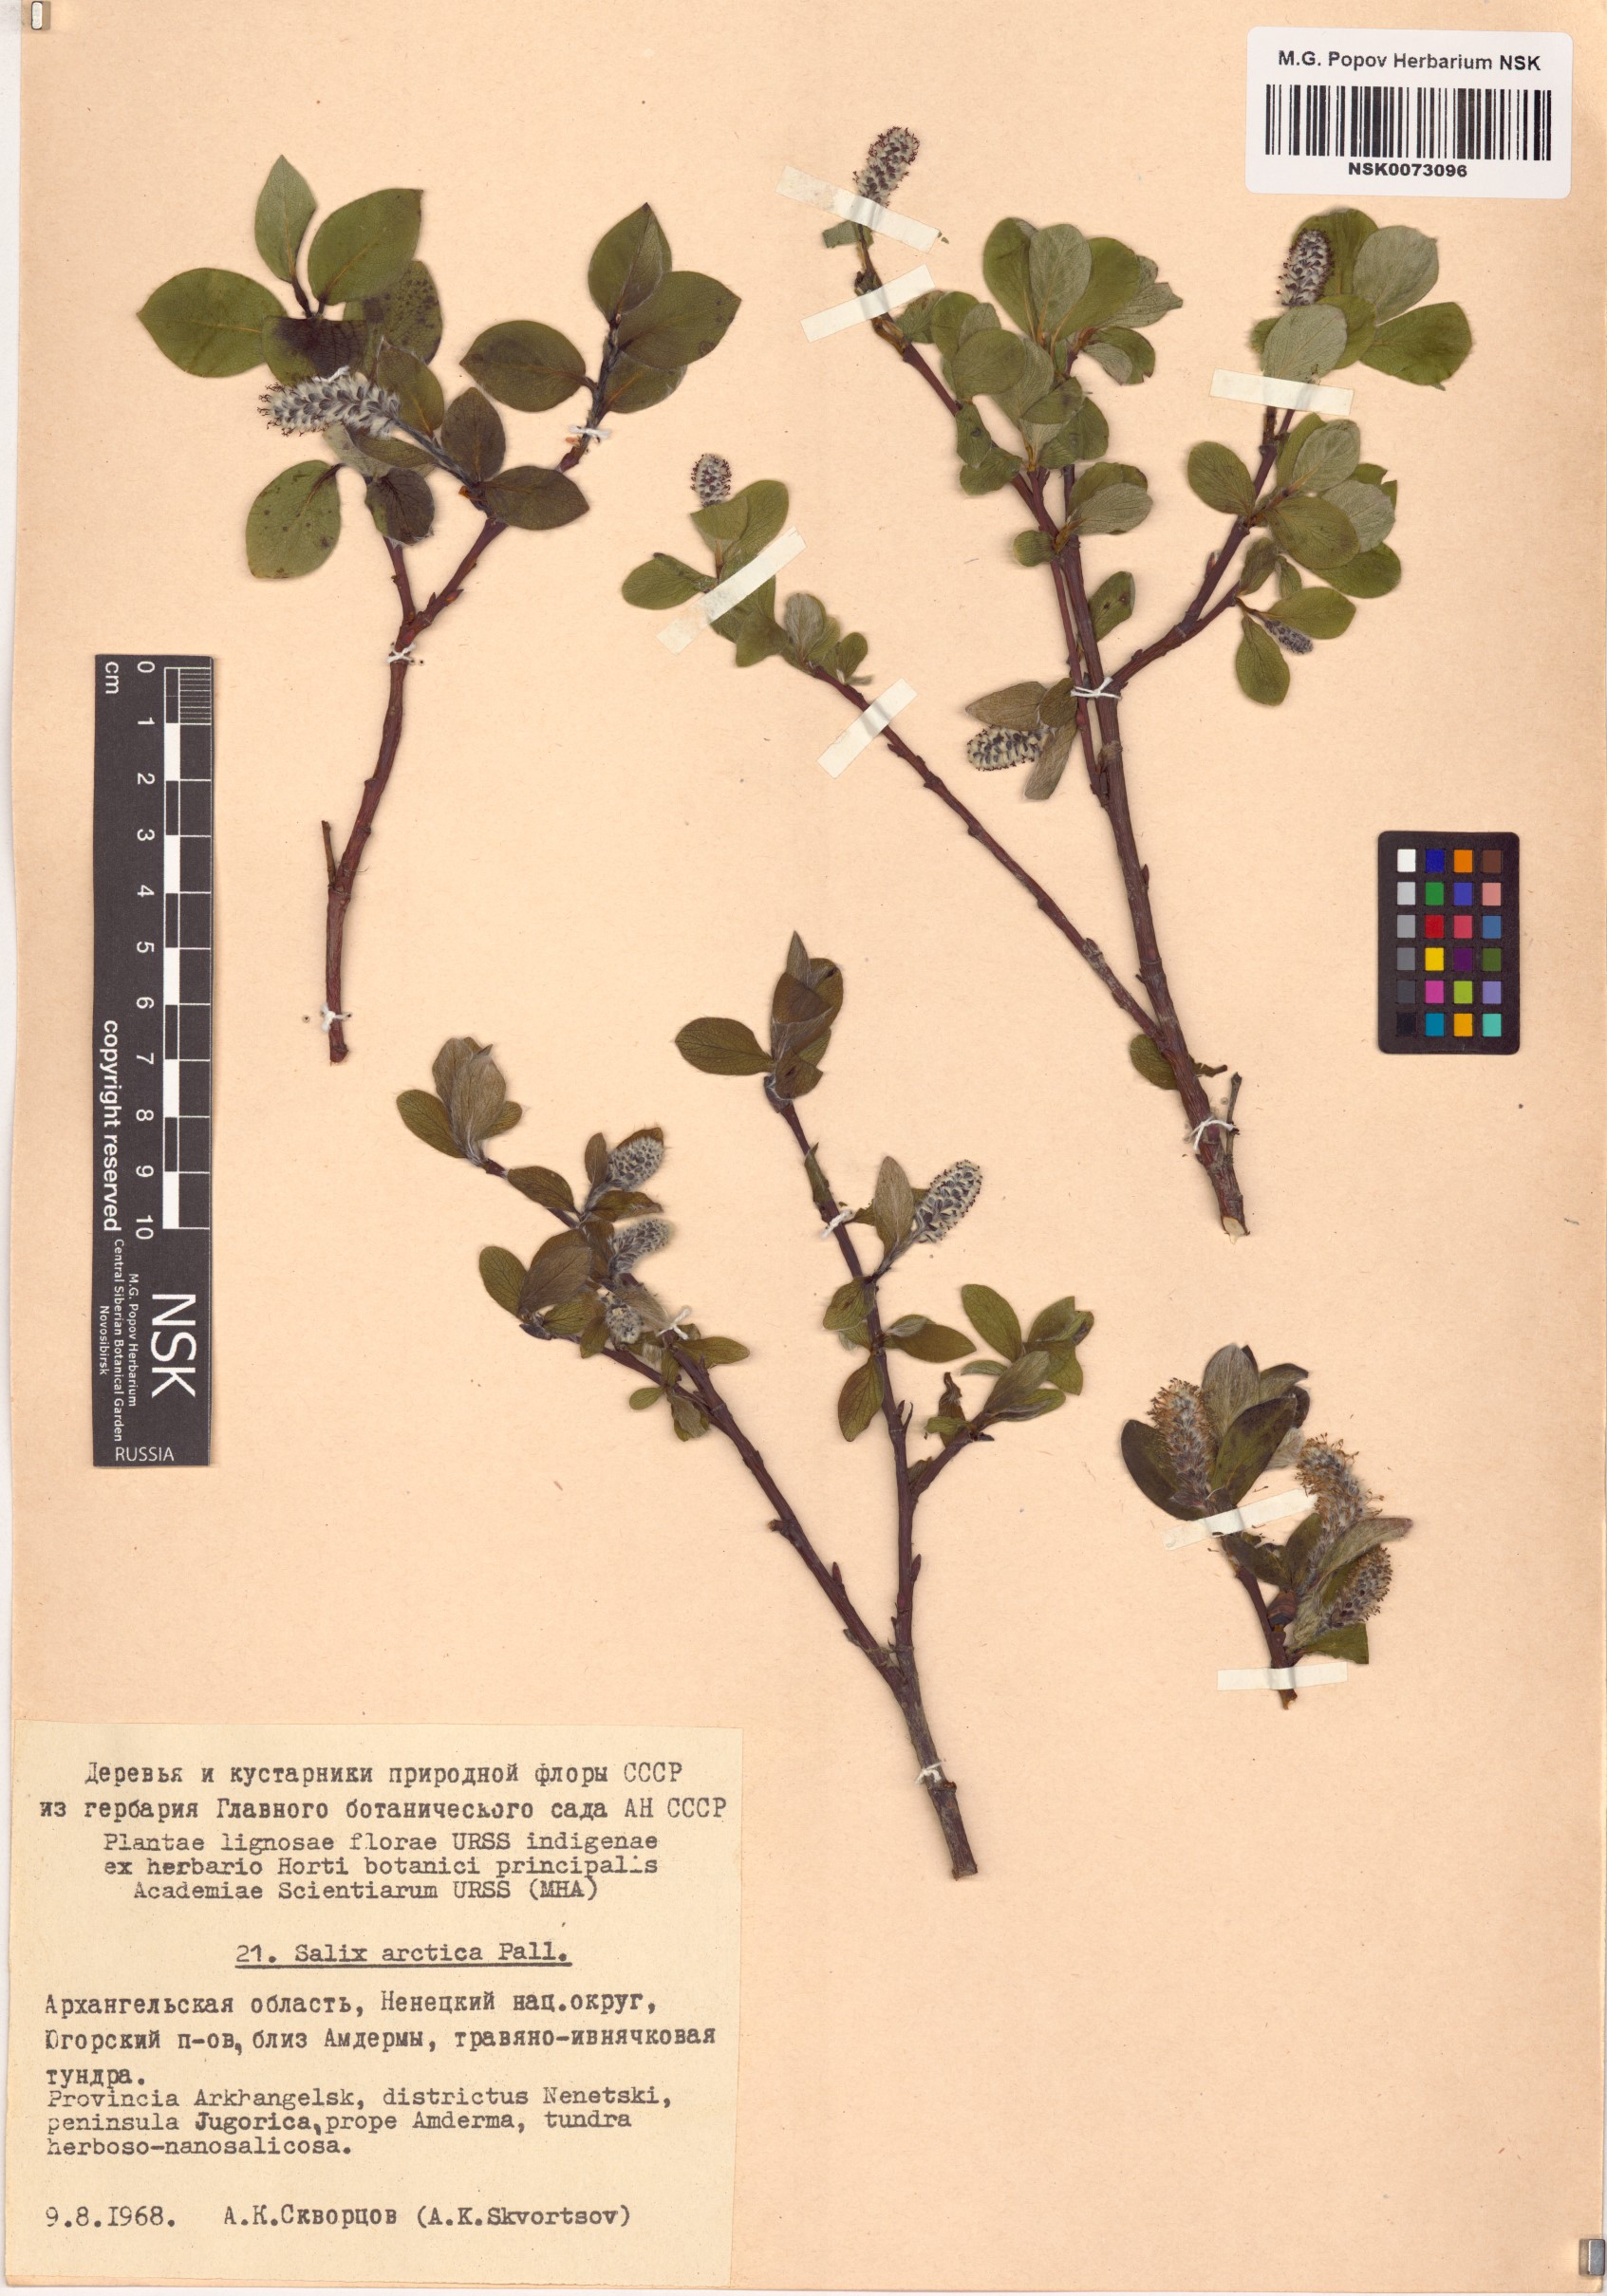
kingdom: Plantae
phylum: Tracheophyta
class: Magnoliopsida
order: Malpighiales
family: Salicaceae
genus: Salix
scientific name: Salix arctica
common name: Arctic willow
